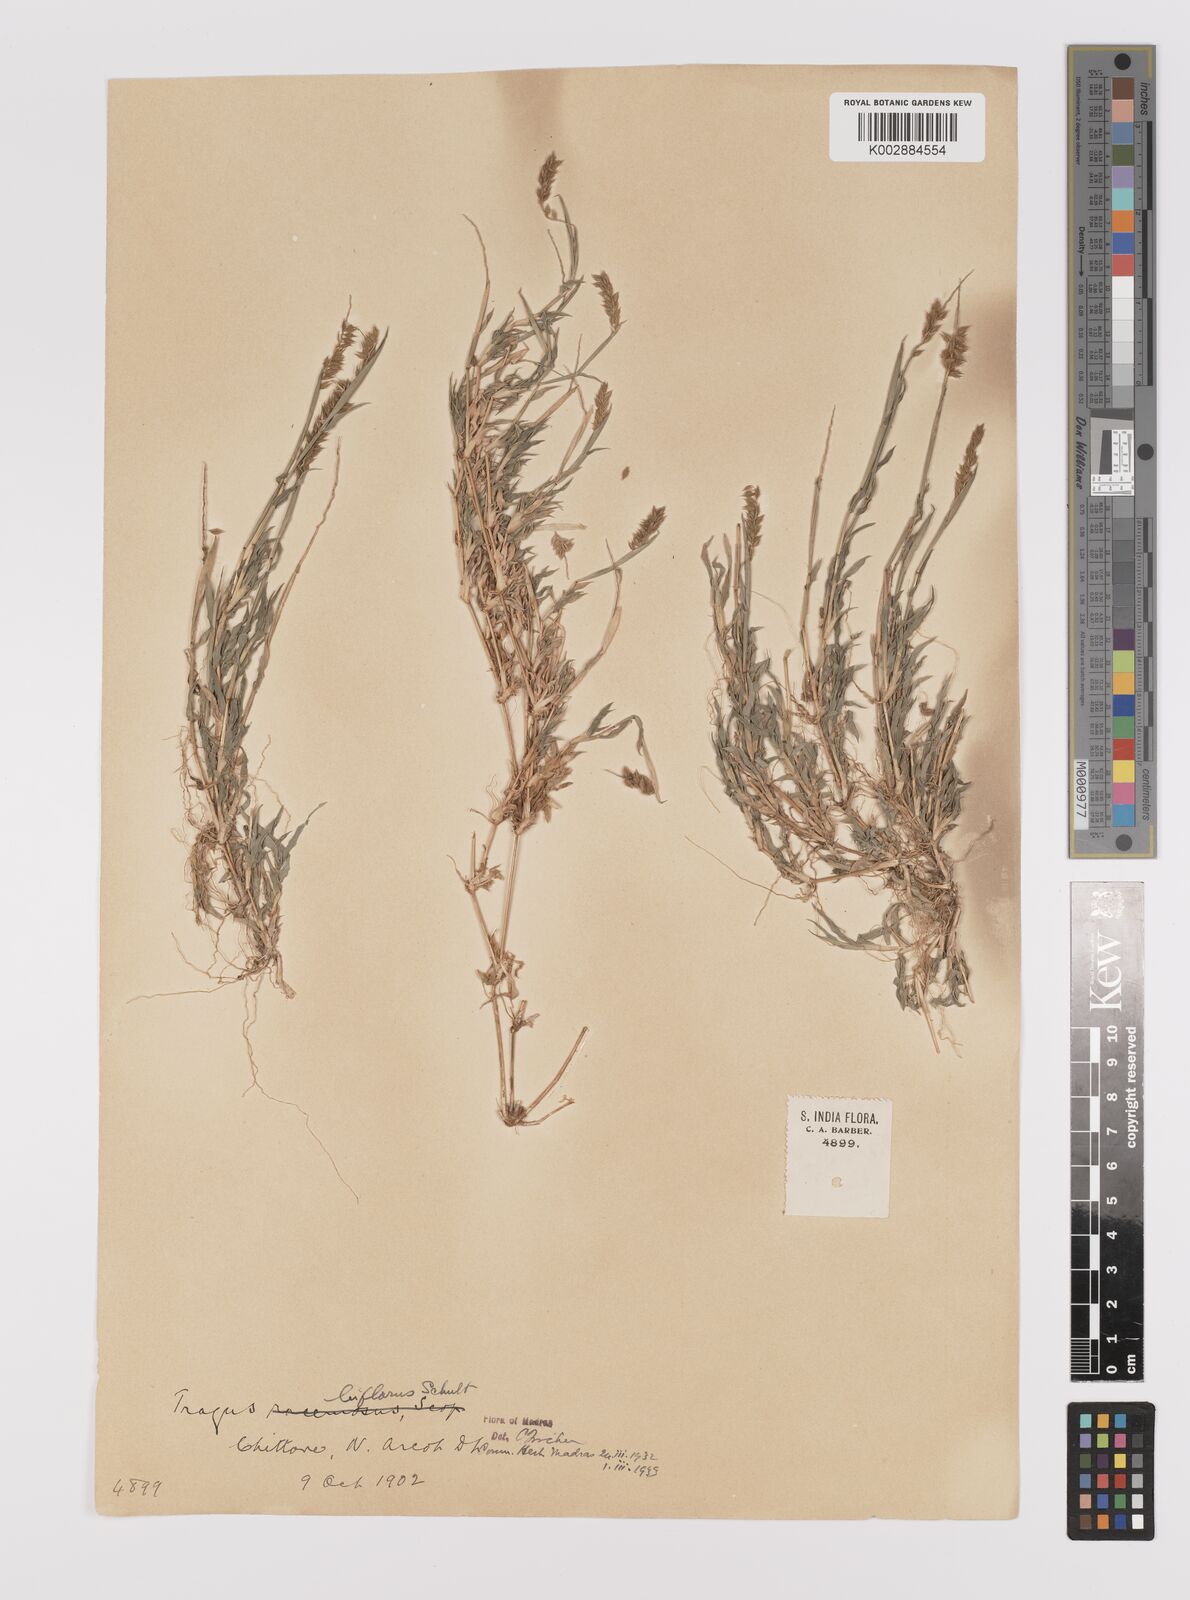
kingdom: Plantae
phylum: Tracheophyta
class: Liliopsida
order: Poales
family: Poaceae
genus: Tragus
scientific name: Tragus mongolorum
